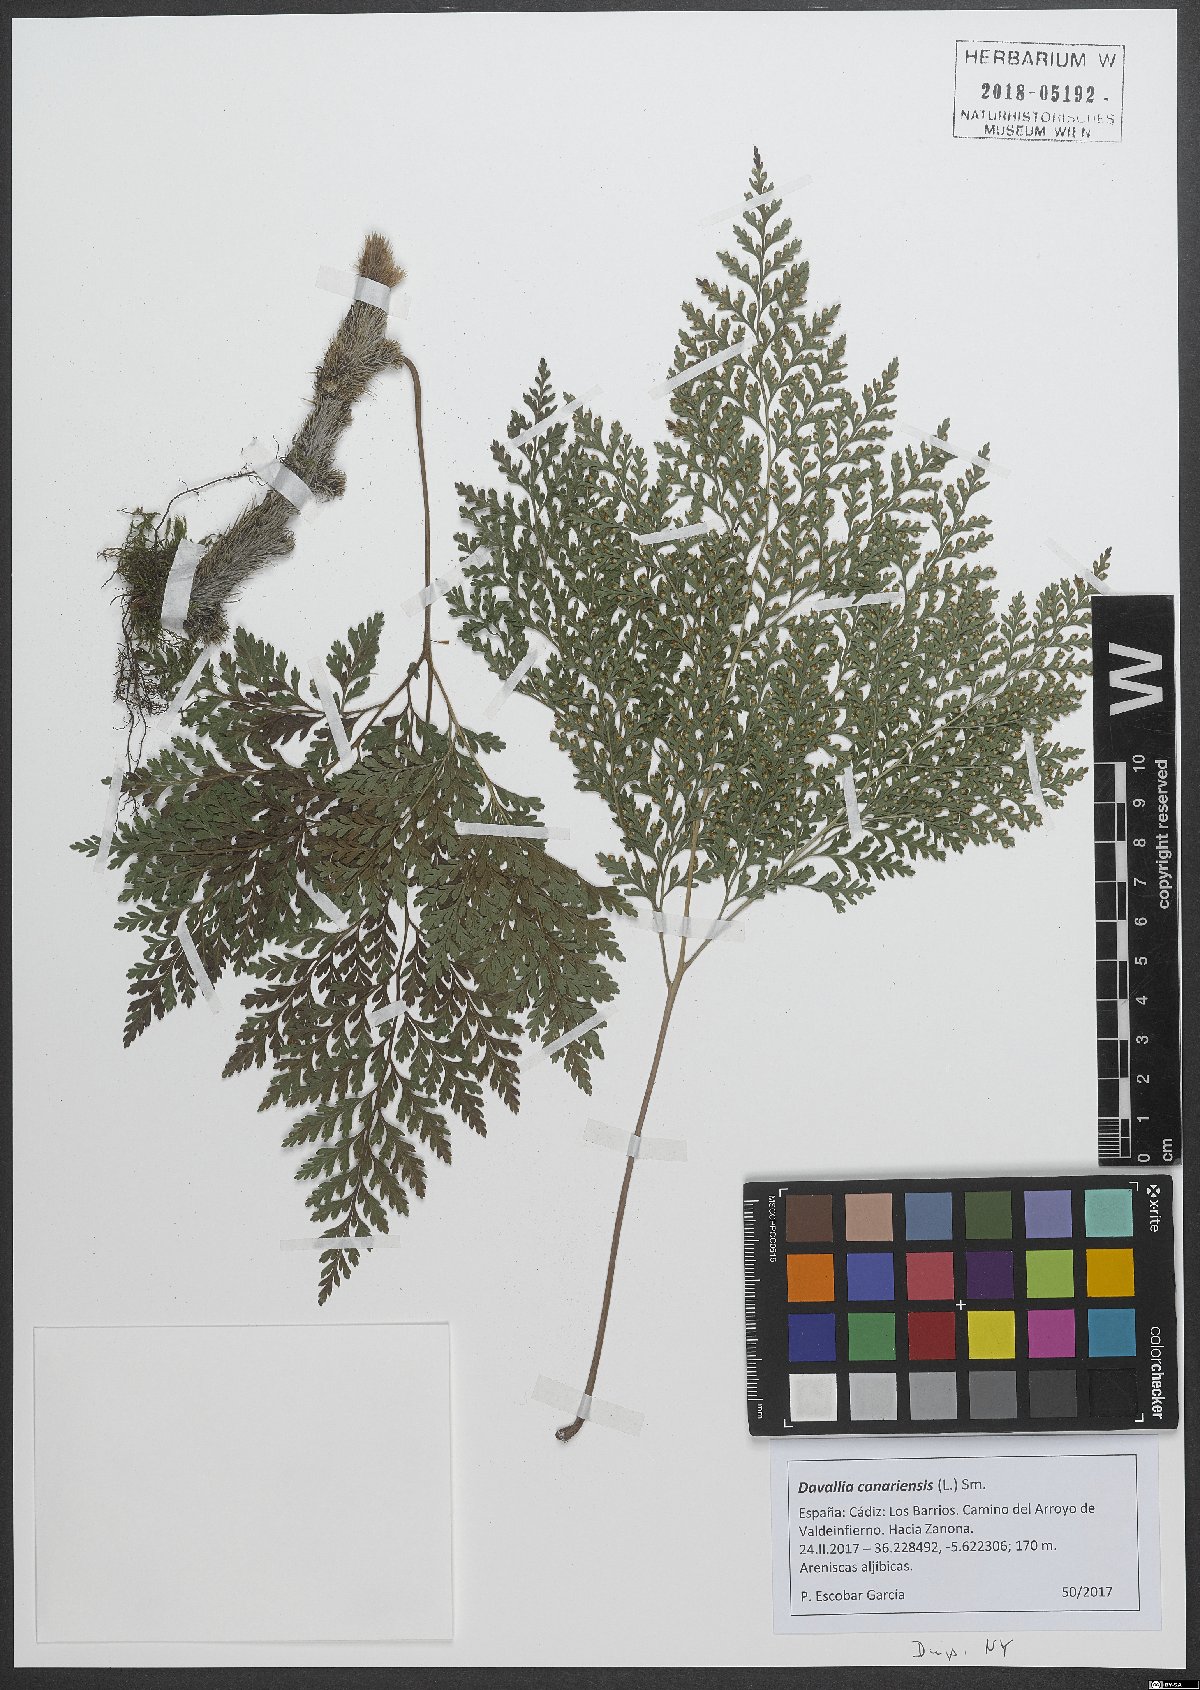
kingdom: Plantae
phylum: Tracheophyta
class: Polypodiopsida
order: Polypodiales
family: Davalliaceae
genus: Davallia
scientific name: Davallia canariensis
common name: Hare's-foot fern
